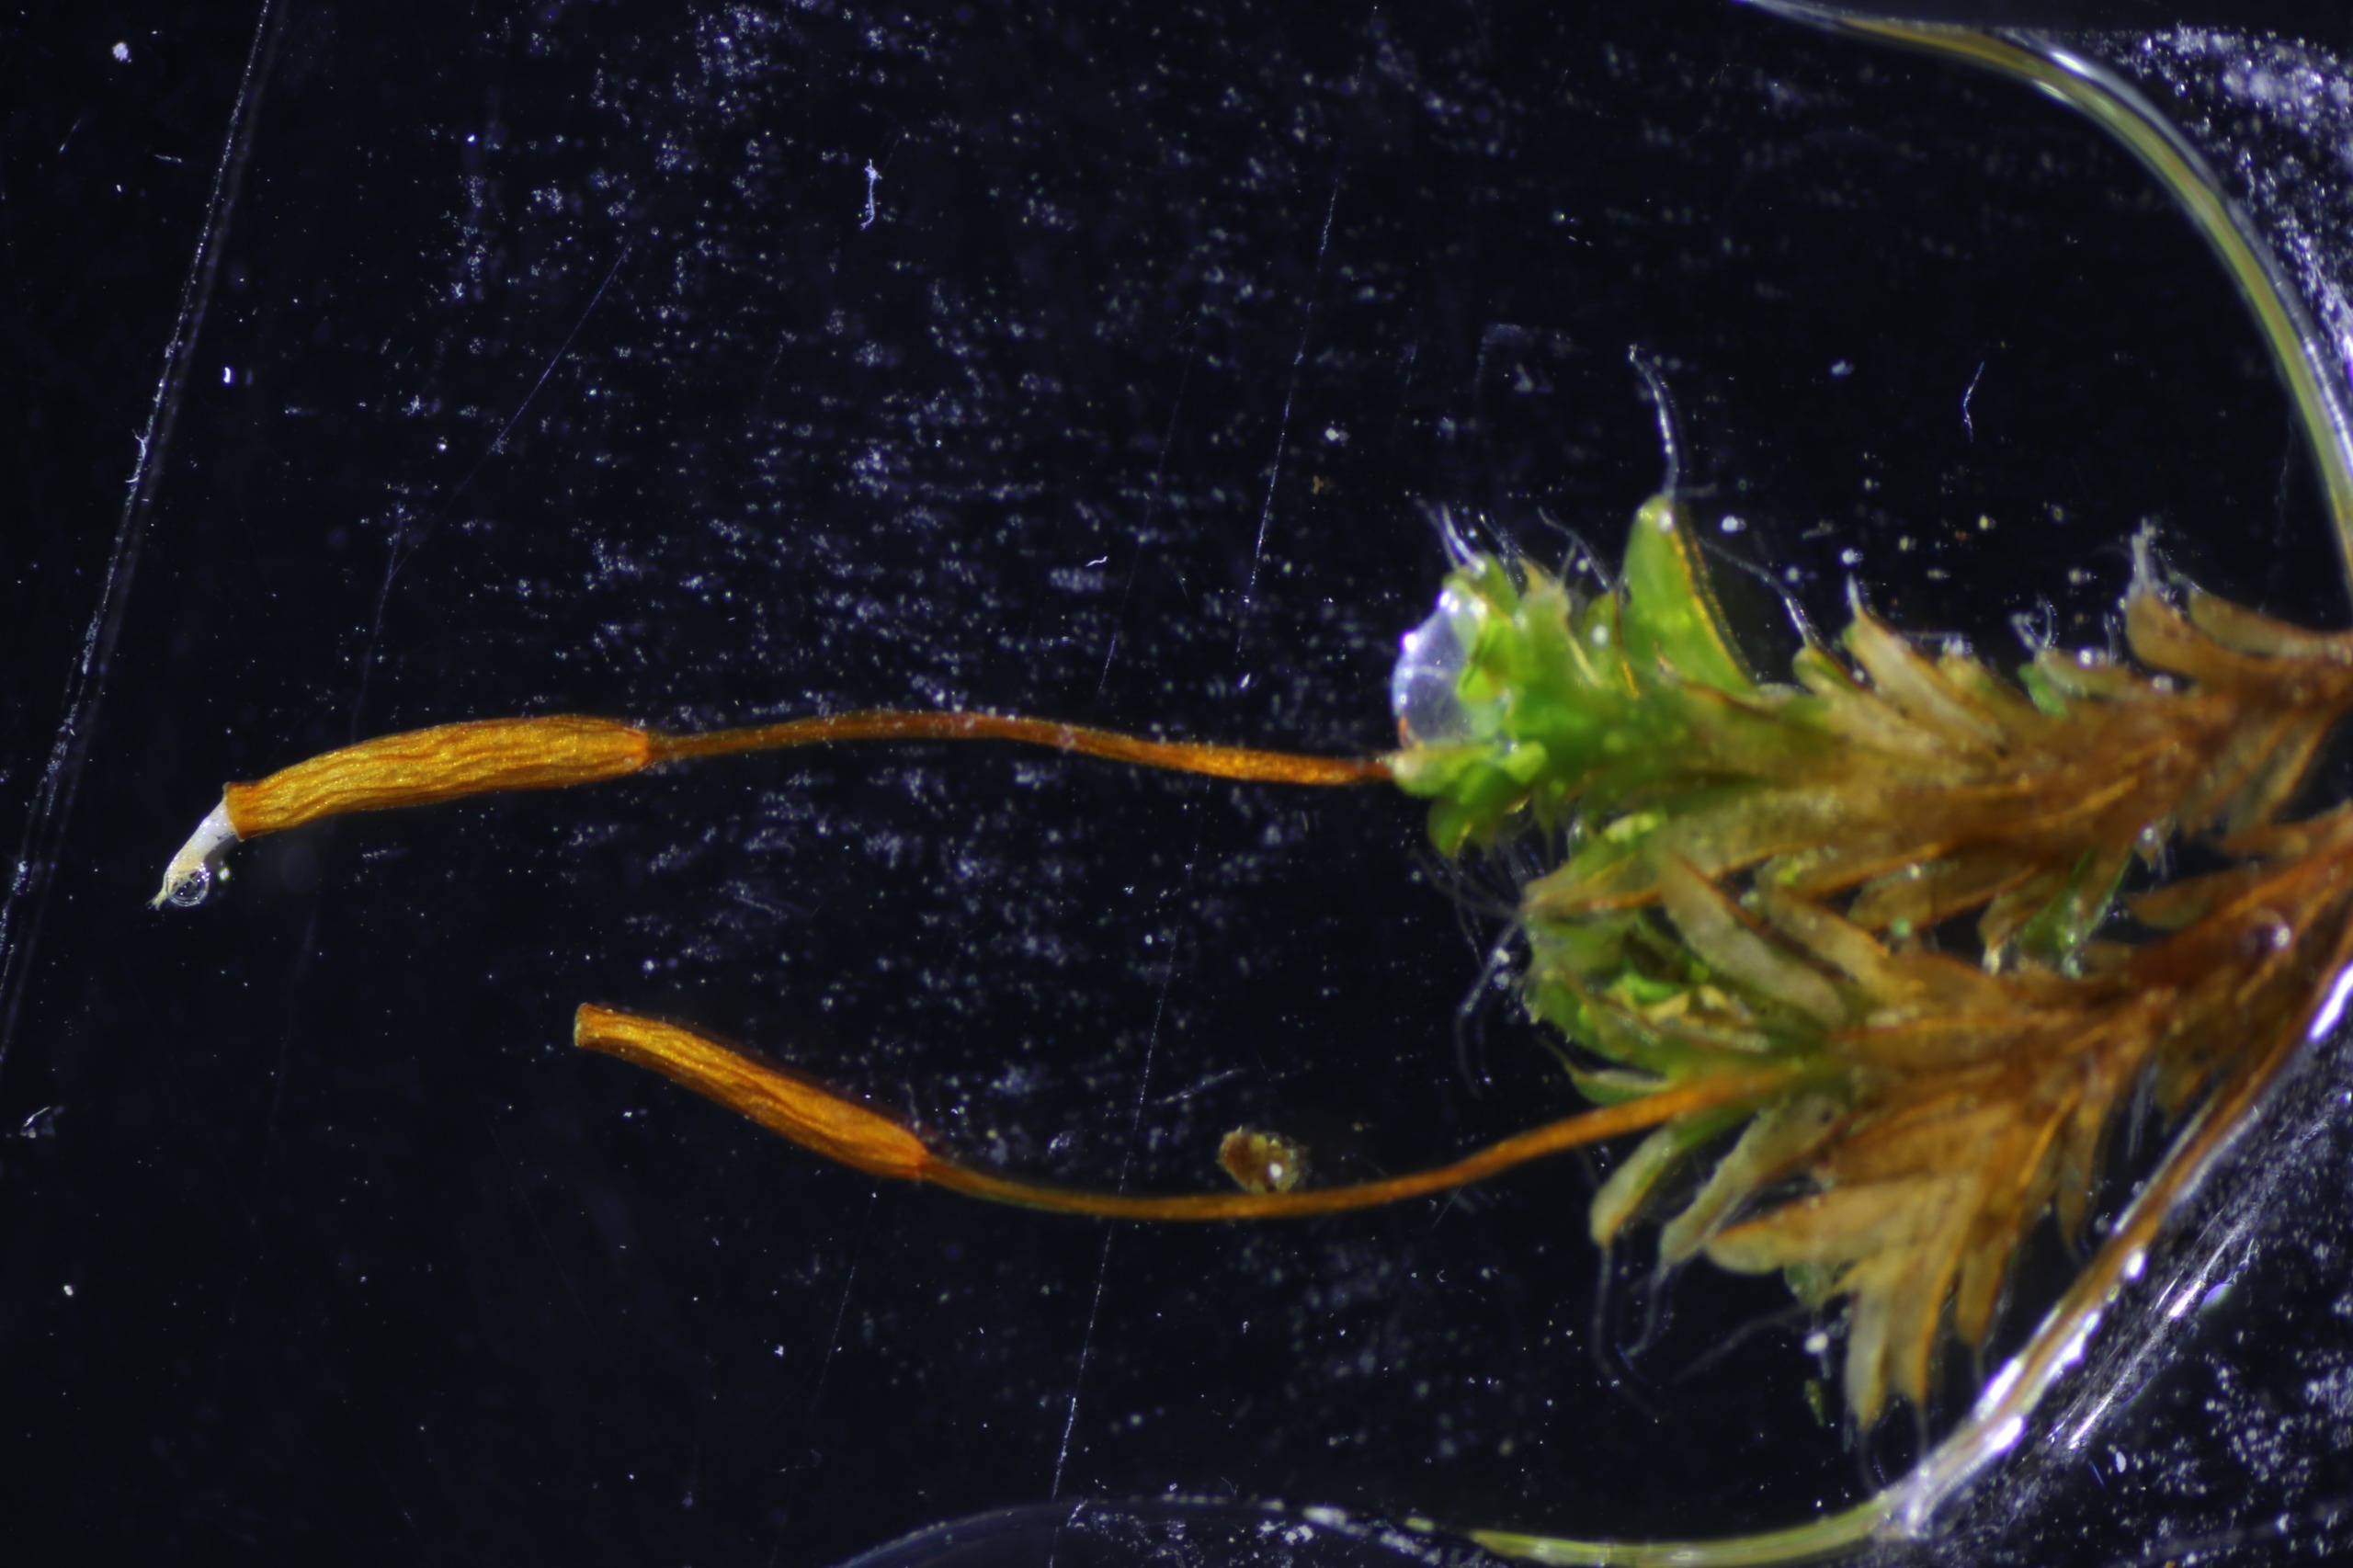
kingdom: Plantae
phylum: Bryophyta
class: Bryopsida
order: Pottiales
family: Pottiaceae
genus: Syntrichia
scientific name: Syntrichia virescens
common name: Grøn hårstjerne
